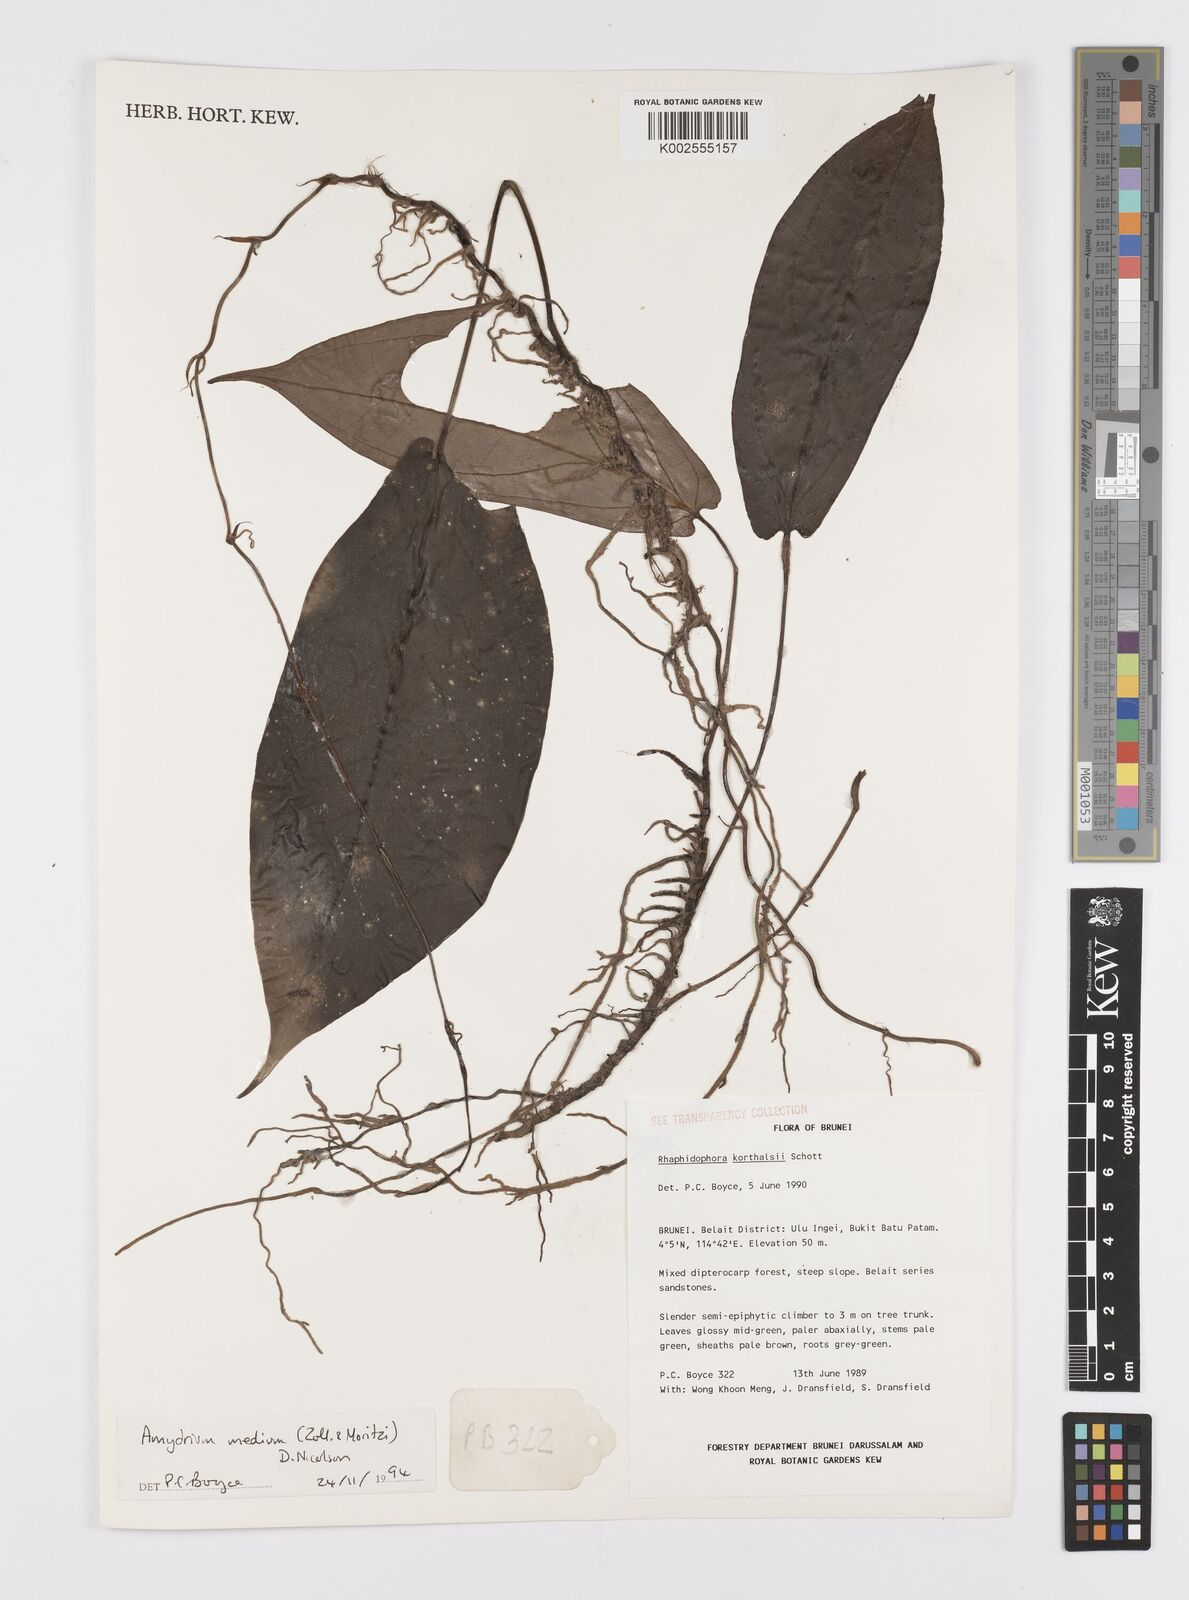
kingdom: Plantae
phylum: Tracheophyta
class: Liliopsida
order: Alismatales
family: Araceae
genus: Amydrium
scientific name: Amydrium medium
